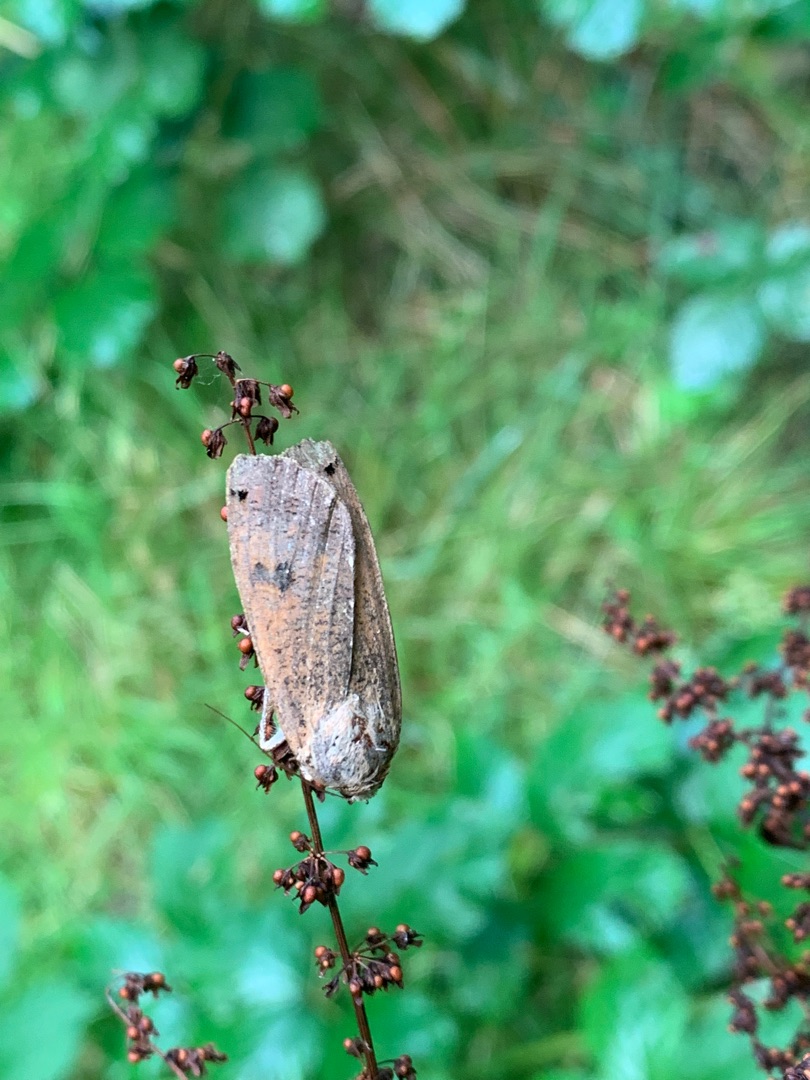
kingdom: Animalia
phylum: Arthropoda
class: Insecta
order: Lepidoptera
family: Noctuidae
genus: Noctua
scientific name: Noctua pronuba
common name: Stor smutugle
